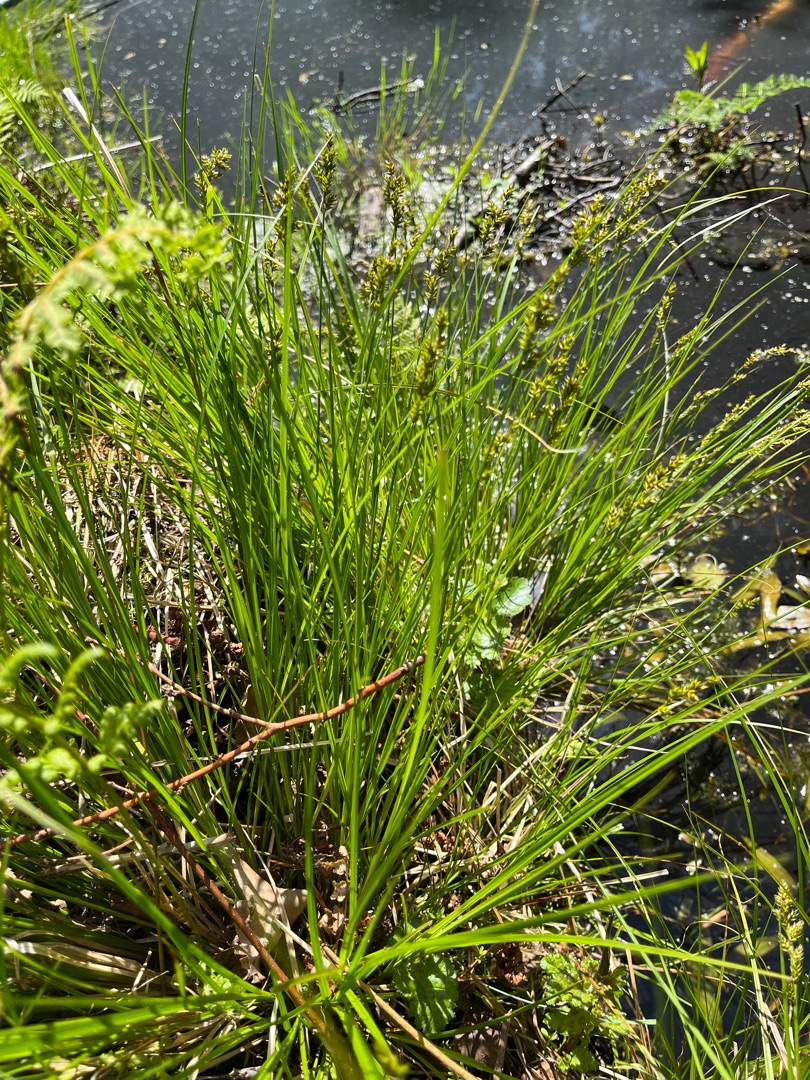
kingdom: Plantae
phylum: Tracheophyta
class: Liliopsida
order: Poales
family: Cyperaceae
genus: Carex
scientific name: Carex elongata
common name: Forlænget star
